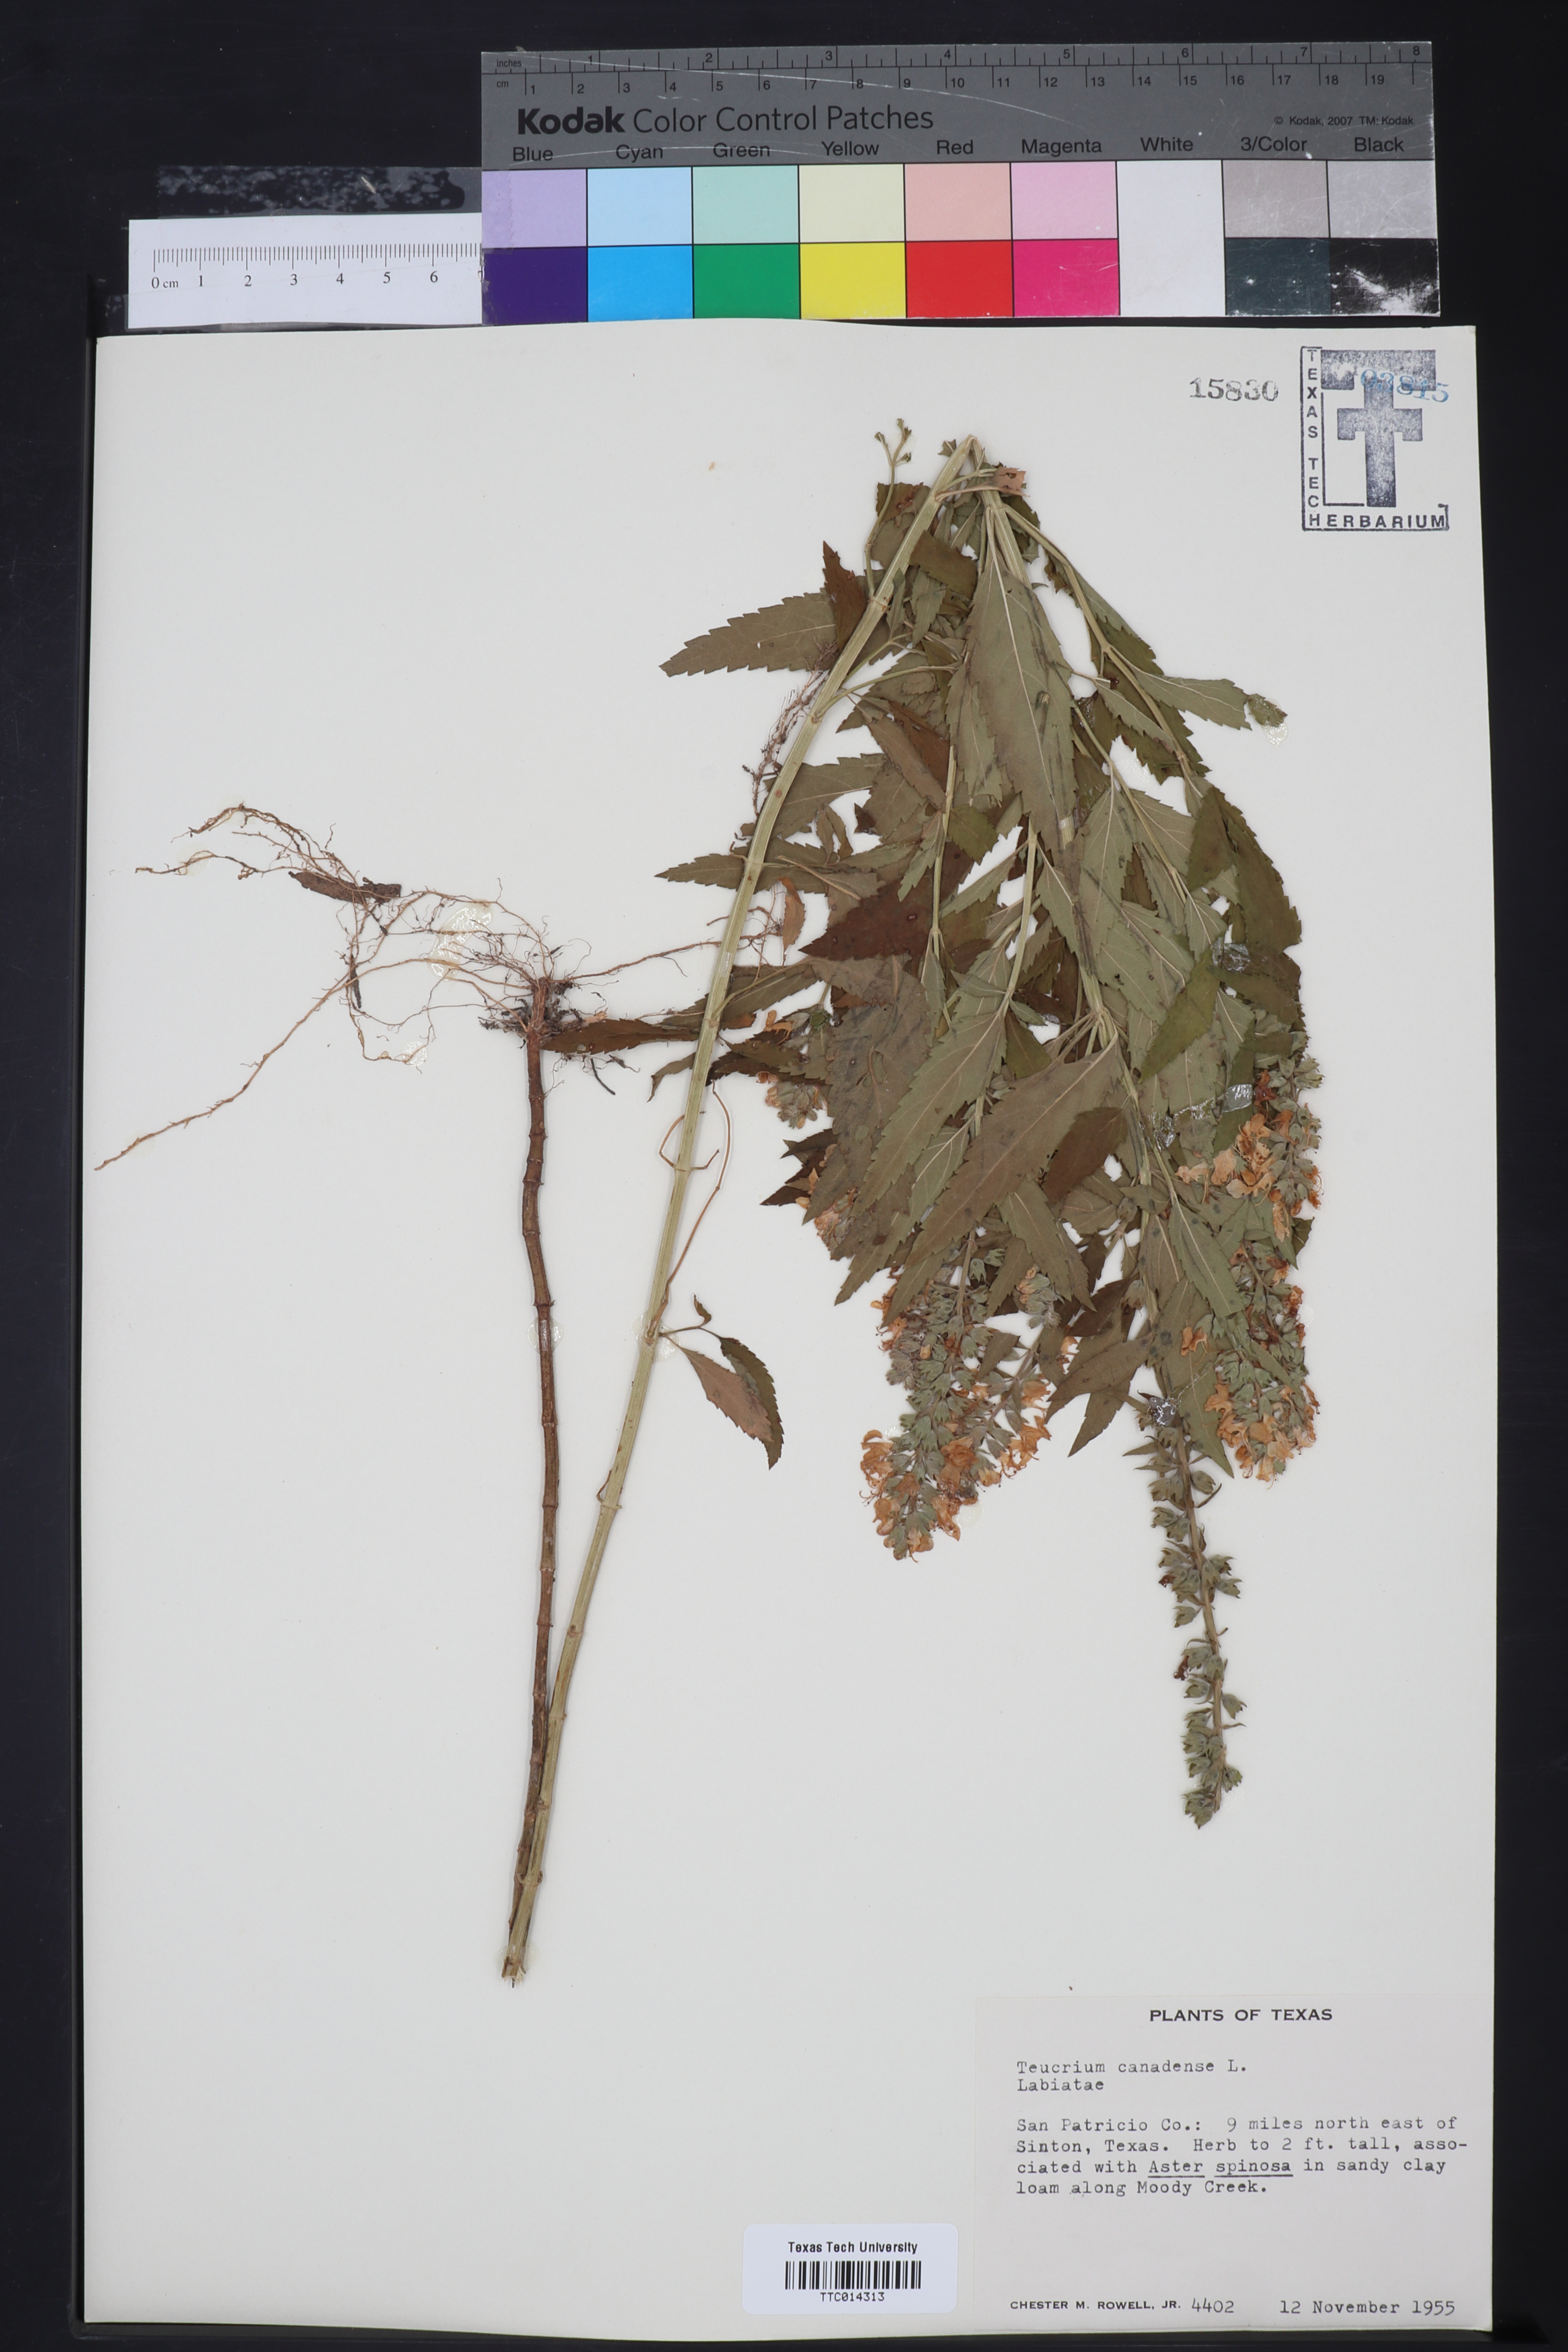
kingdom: Plantae
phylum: Tracheophyta
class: Magnoliopsida
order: Lamiales
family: Lamiaceae
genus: Teucrium
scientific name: Teucrium canadense
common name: American germander
